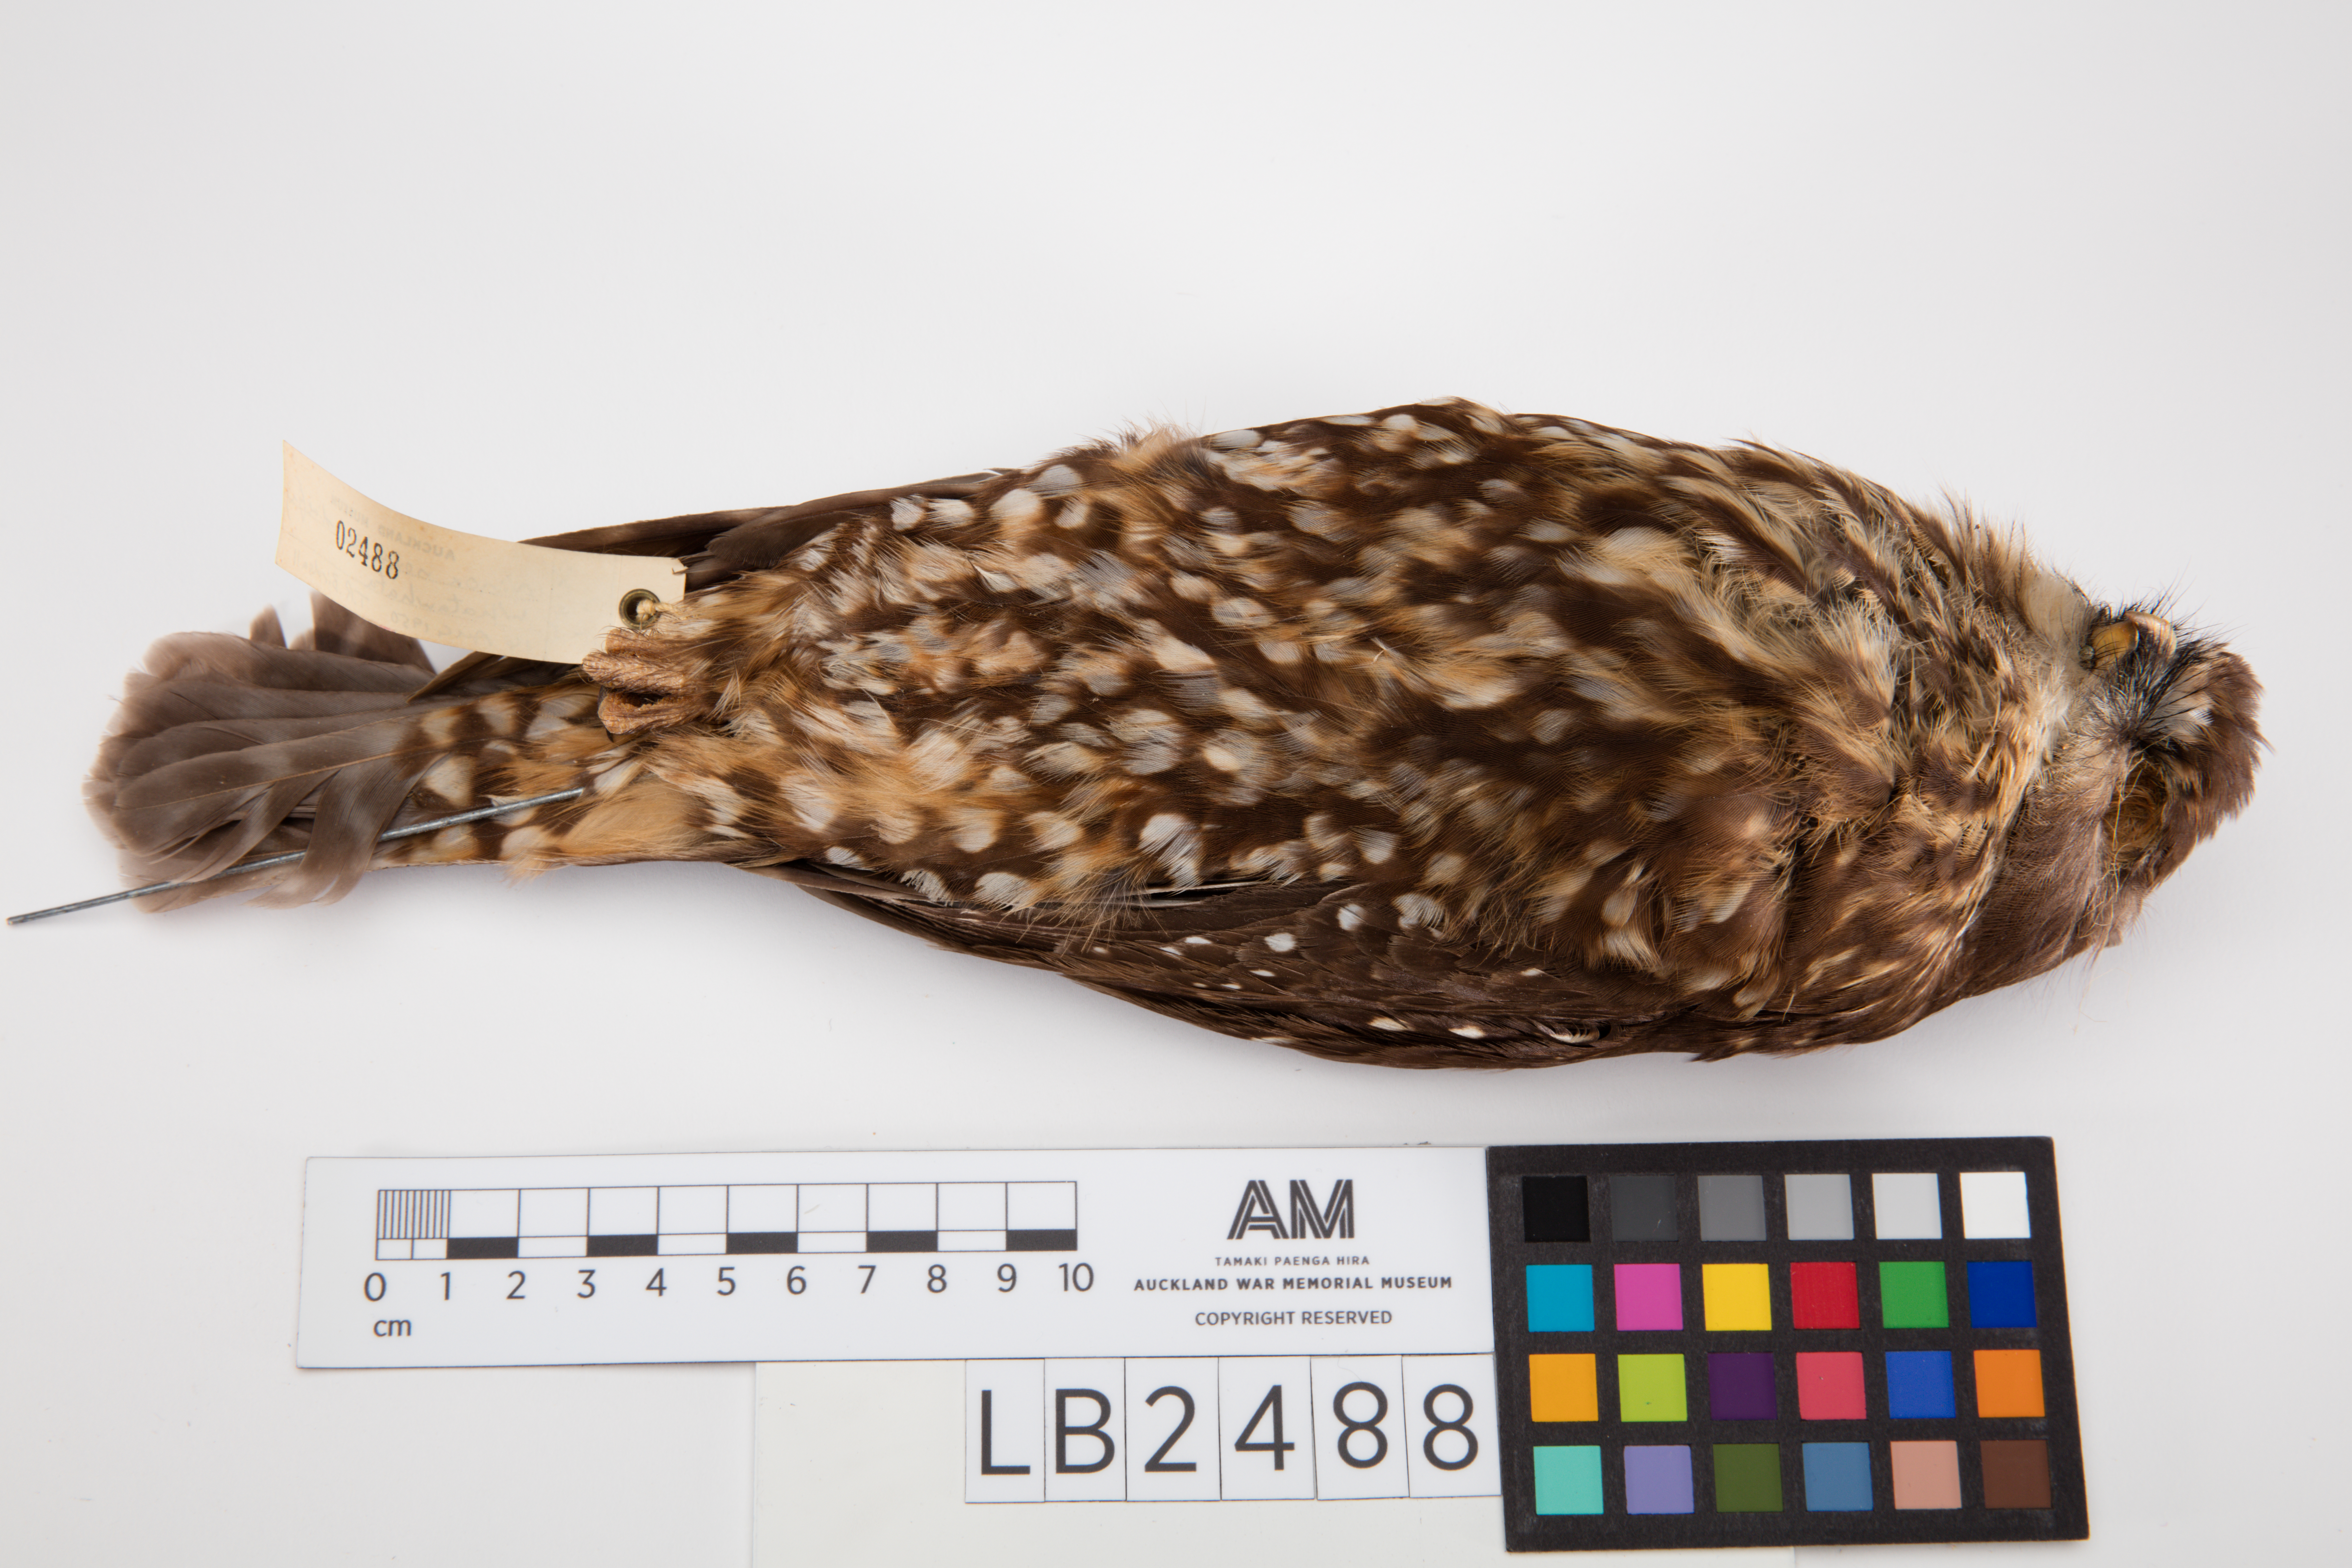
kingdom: Animalia
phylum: Chordata
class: Aves
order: Strigiformes
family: Strigidae
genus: Ninox
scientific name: Ninox novaeseelandiae
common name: Morepork
